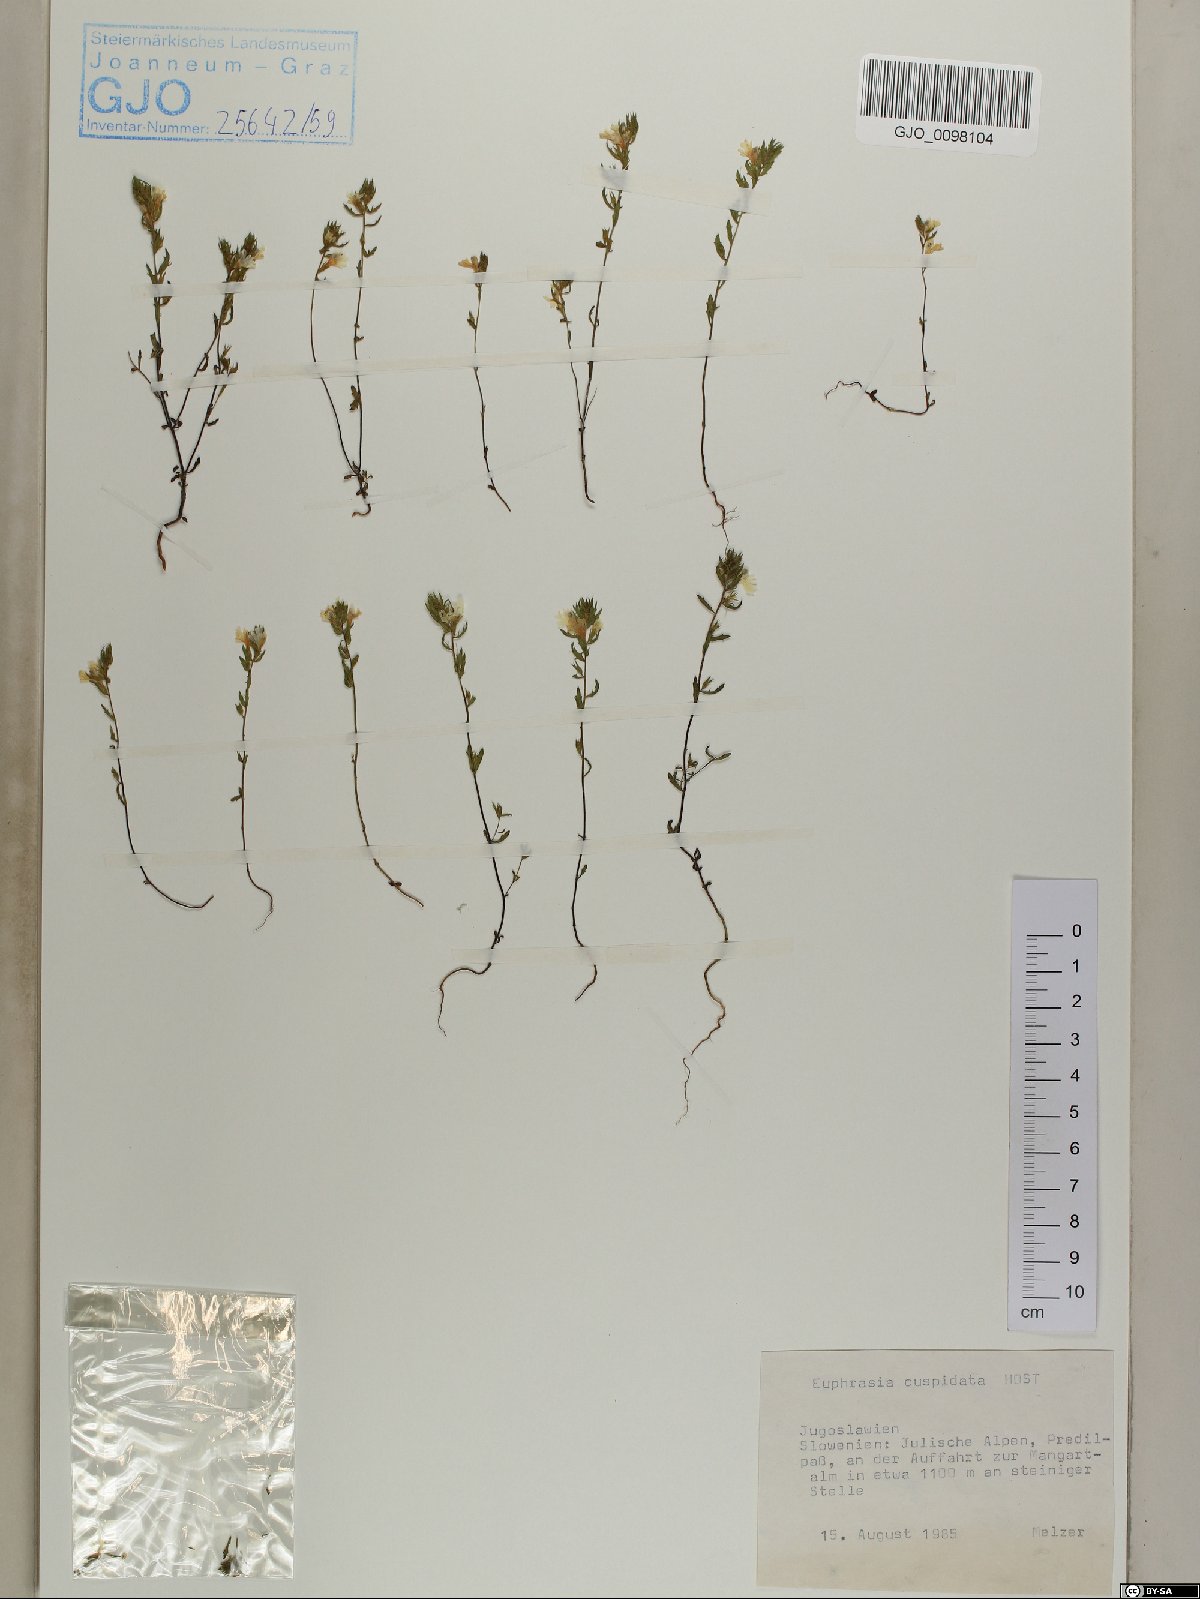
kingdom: Plantae
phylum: Tracheophyta
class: Magnoliopsida
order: Lamiales
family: Orobanchaceae
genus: Euphrasia
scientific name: Euphrasia cuspidata
